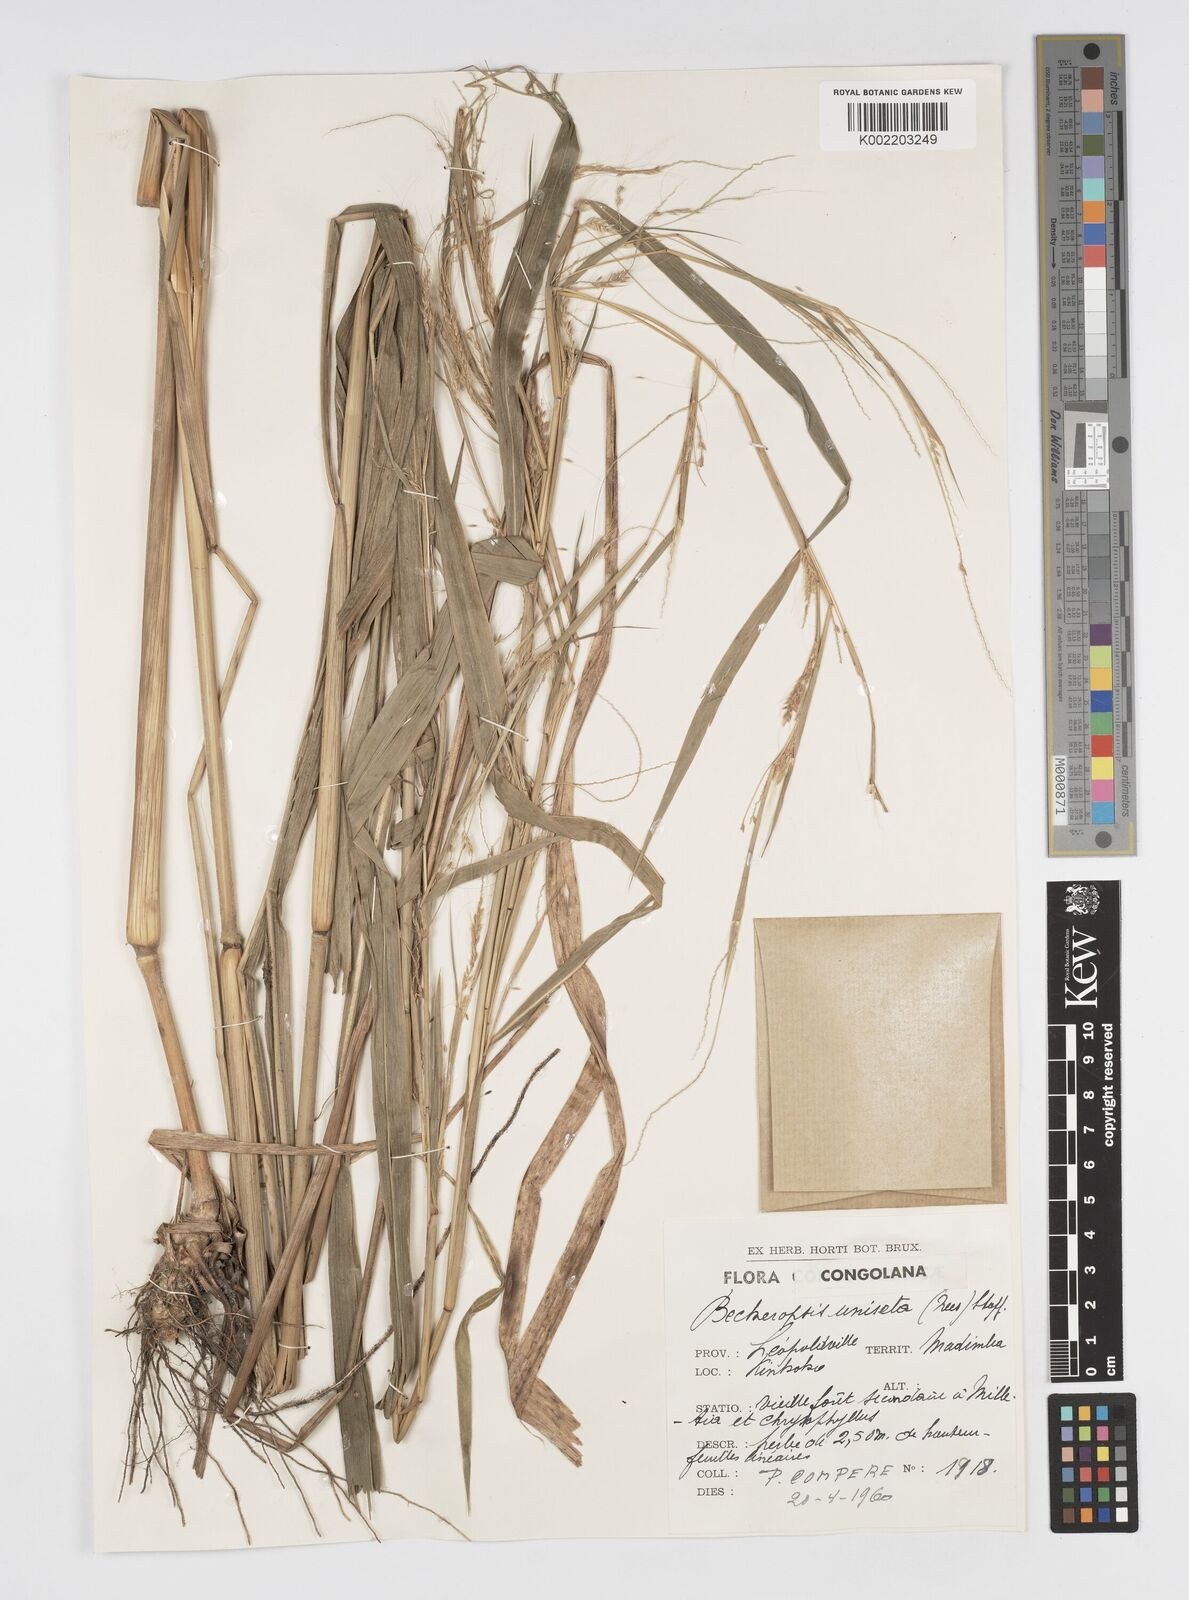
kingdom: Plantae
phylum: Tracheophyta
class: Liliopsida
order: Poales
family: Poaceae
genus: Cenchrus
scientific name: Cenchrus unisetus
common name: Natal grass
